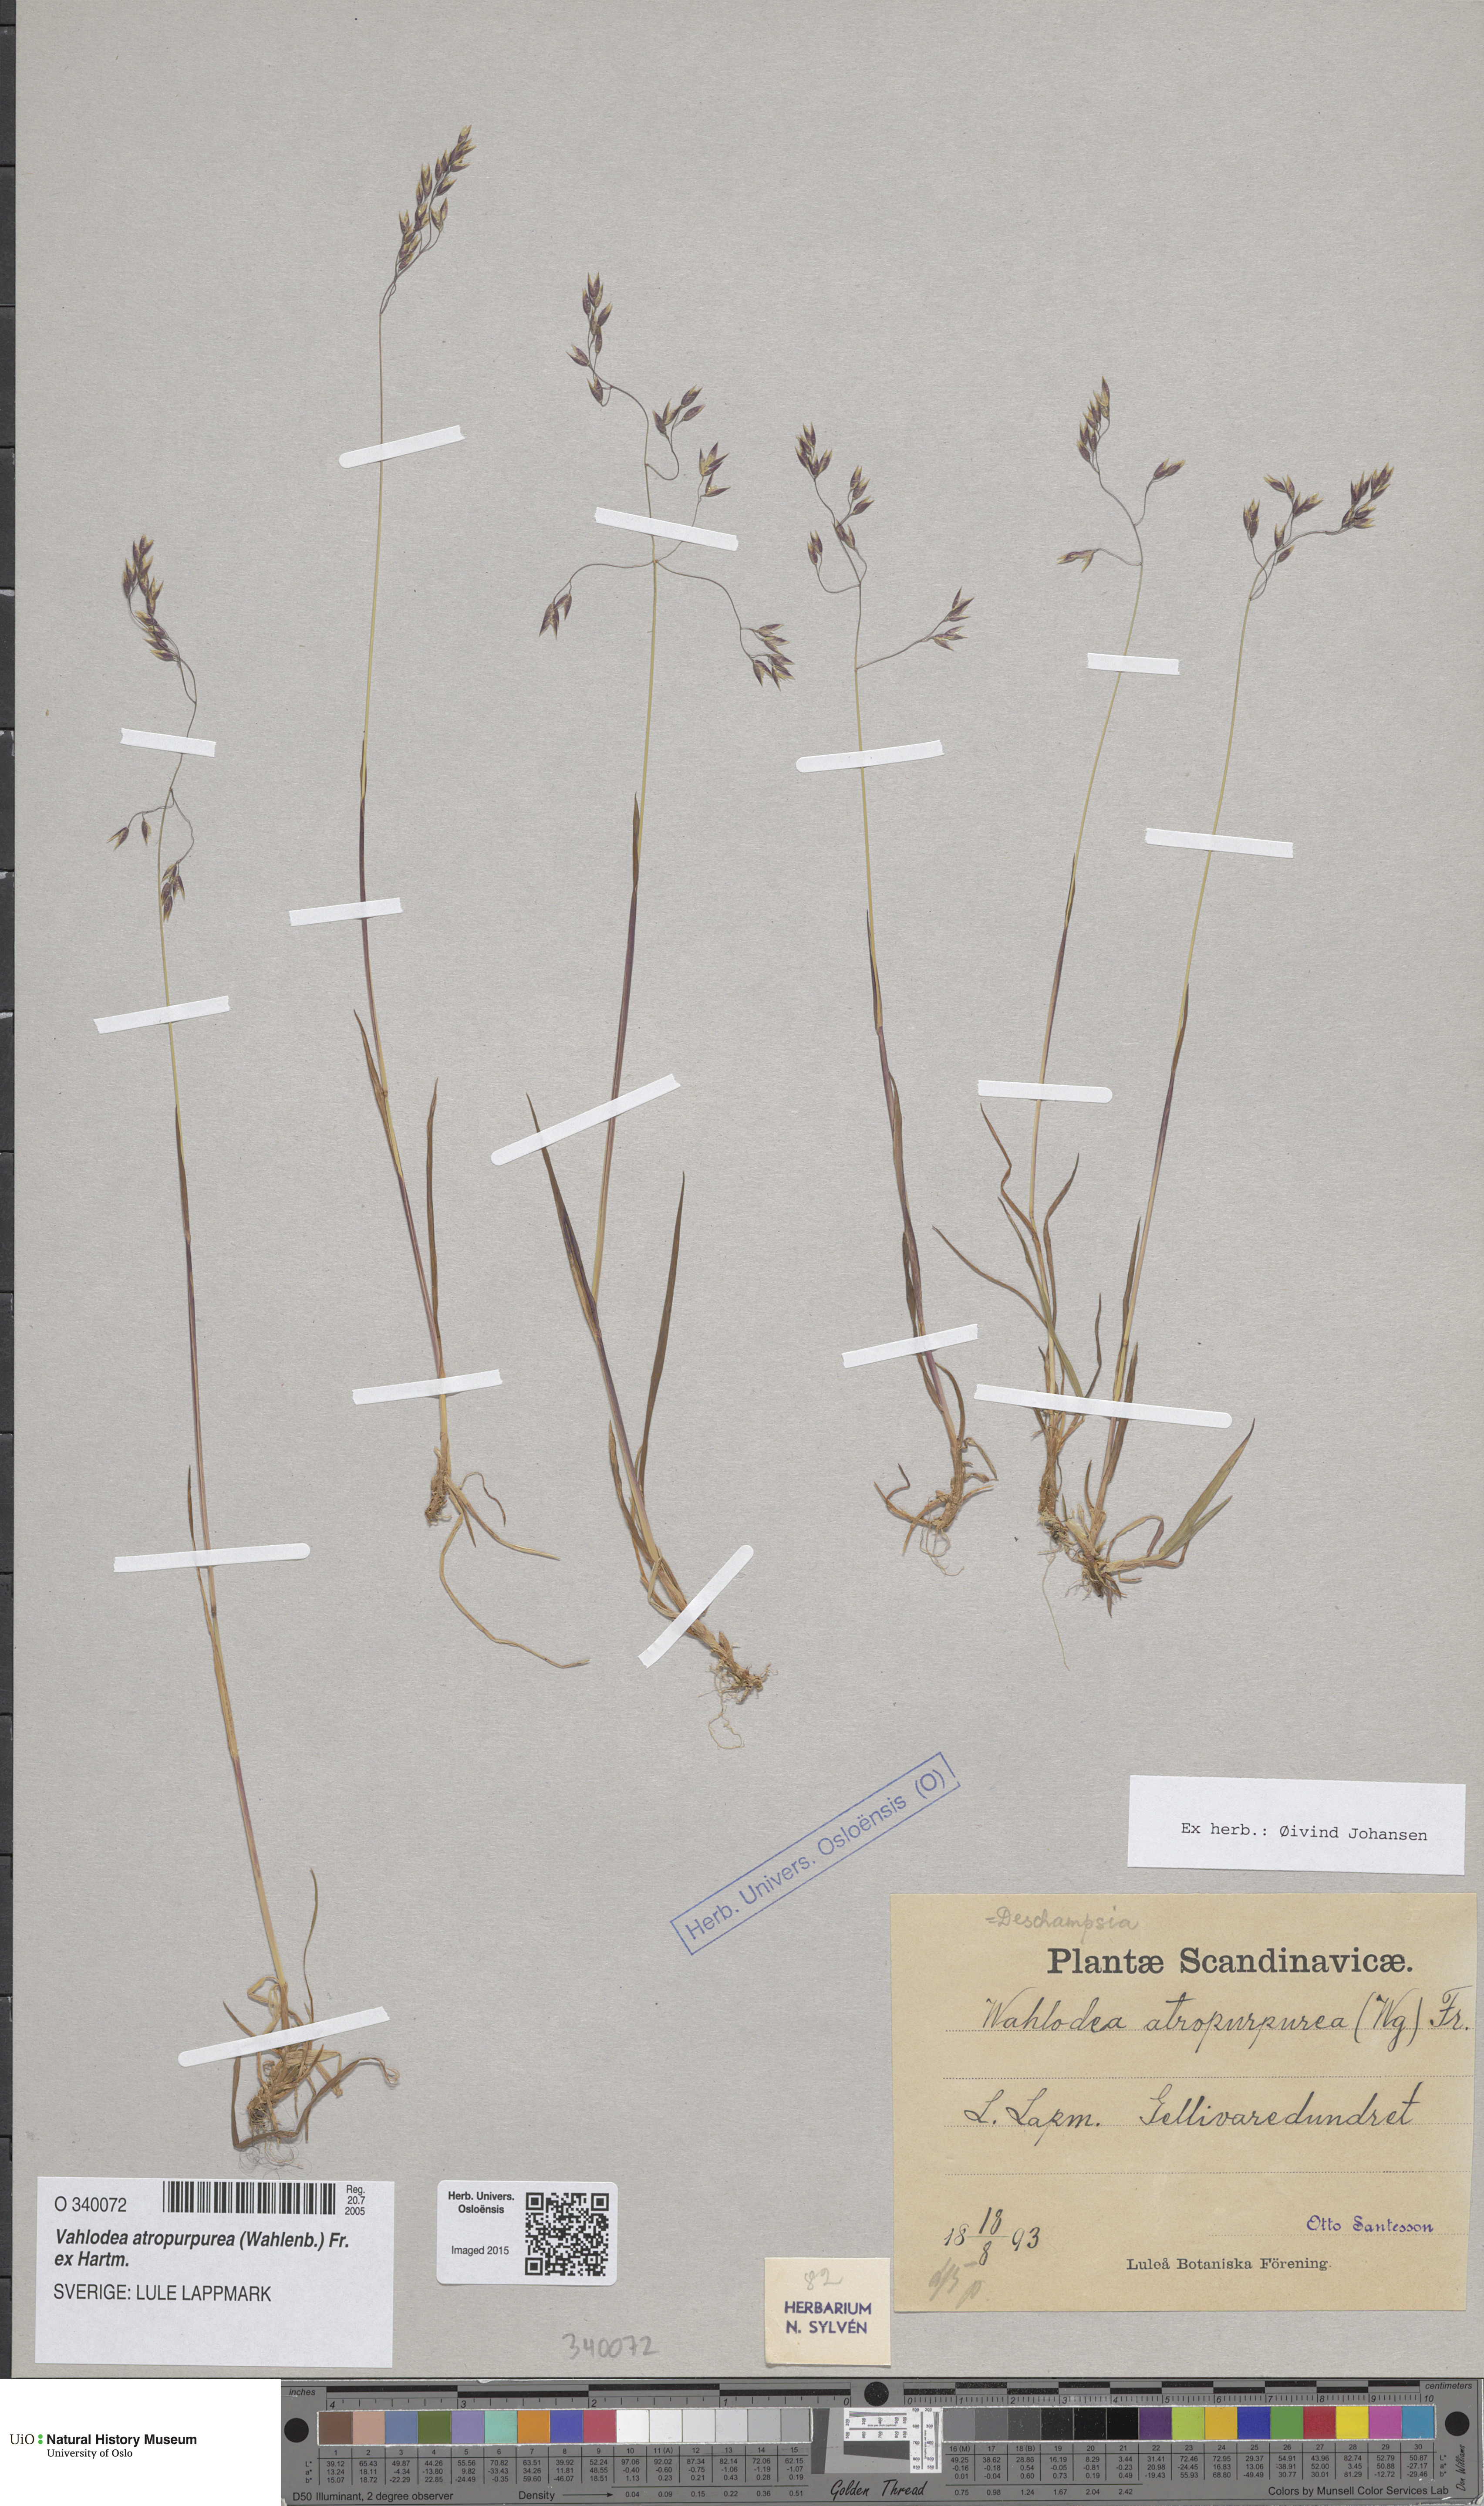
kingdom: Plantae
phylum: Tracheophyta
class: Liliopsida
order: Poales
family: Poaceae
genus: Vahlodea
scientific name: Vahlodea atropurpurea
